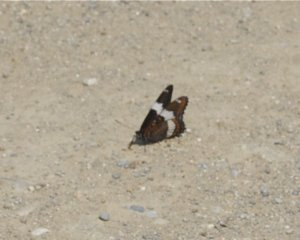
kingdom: Animalia
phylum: Arthropoda
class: Insecta
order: Lepidoptera
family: Nymphalidae
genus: Limenitis
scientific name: Limenitis arthemis
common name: Red-spotted Admiral
